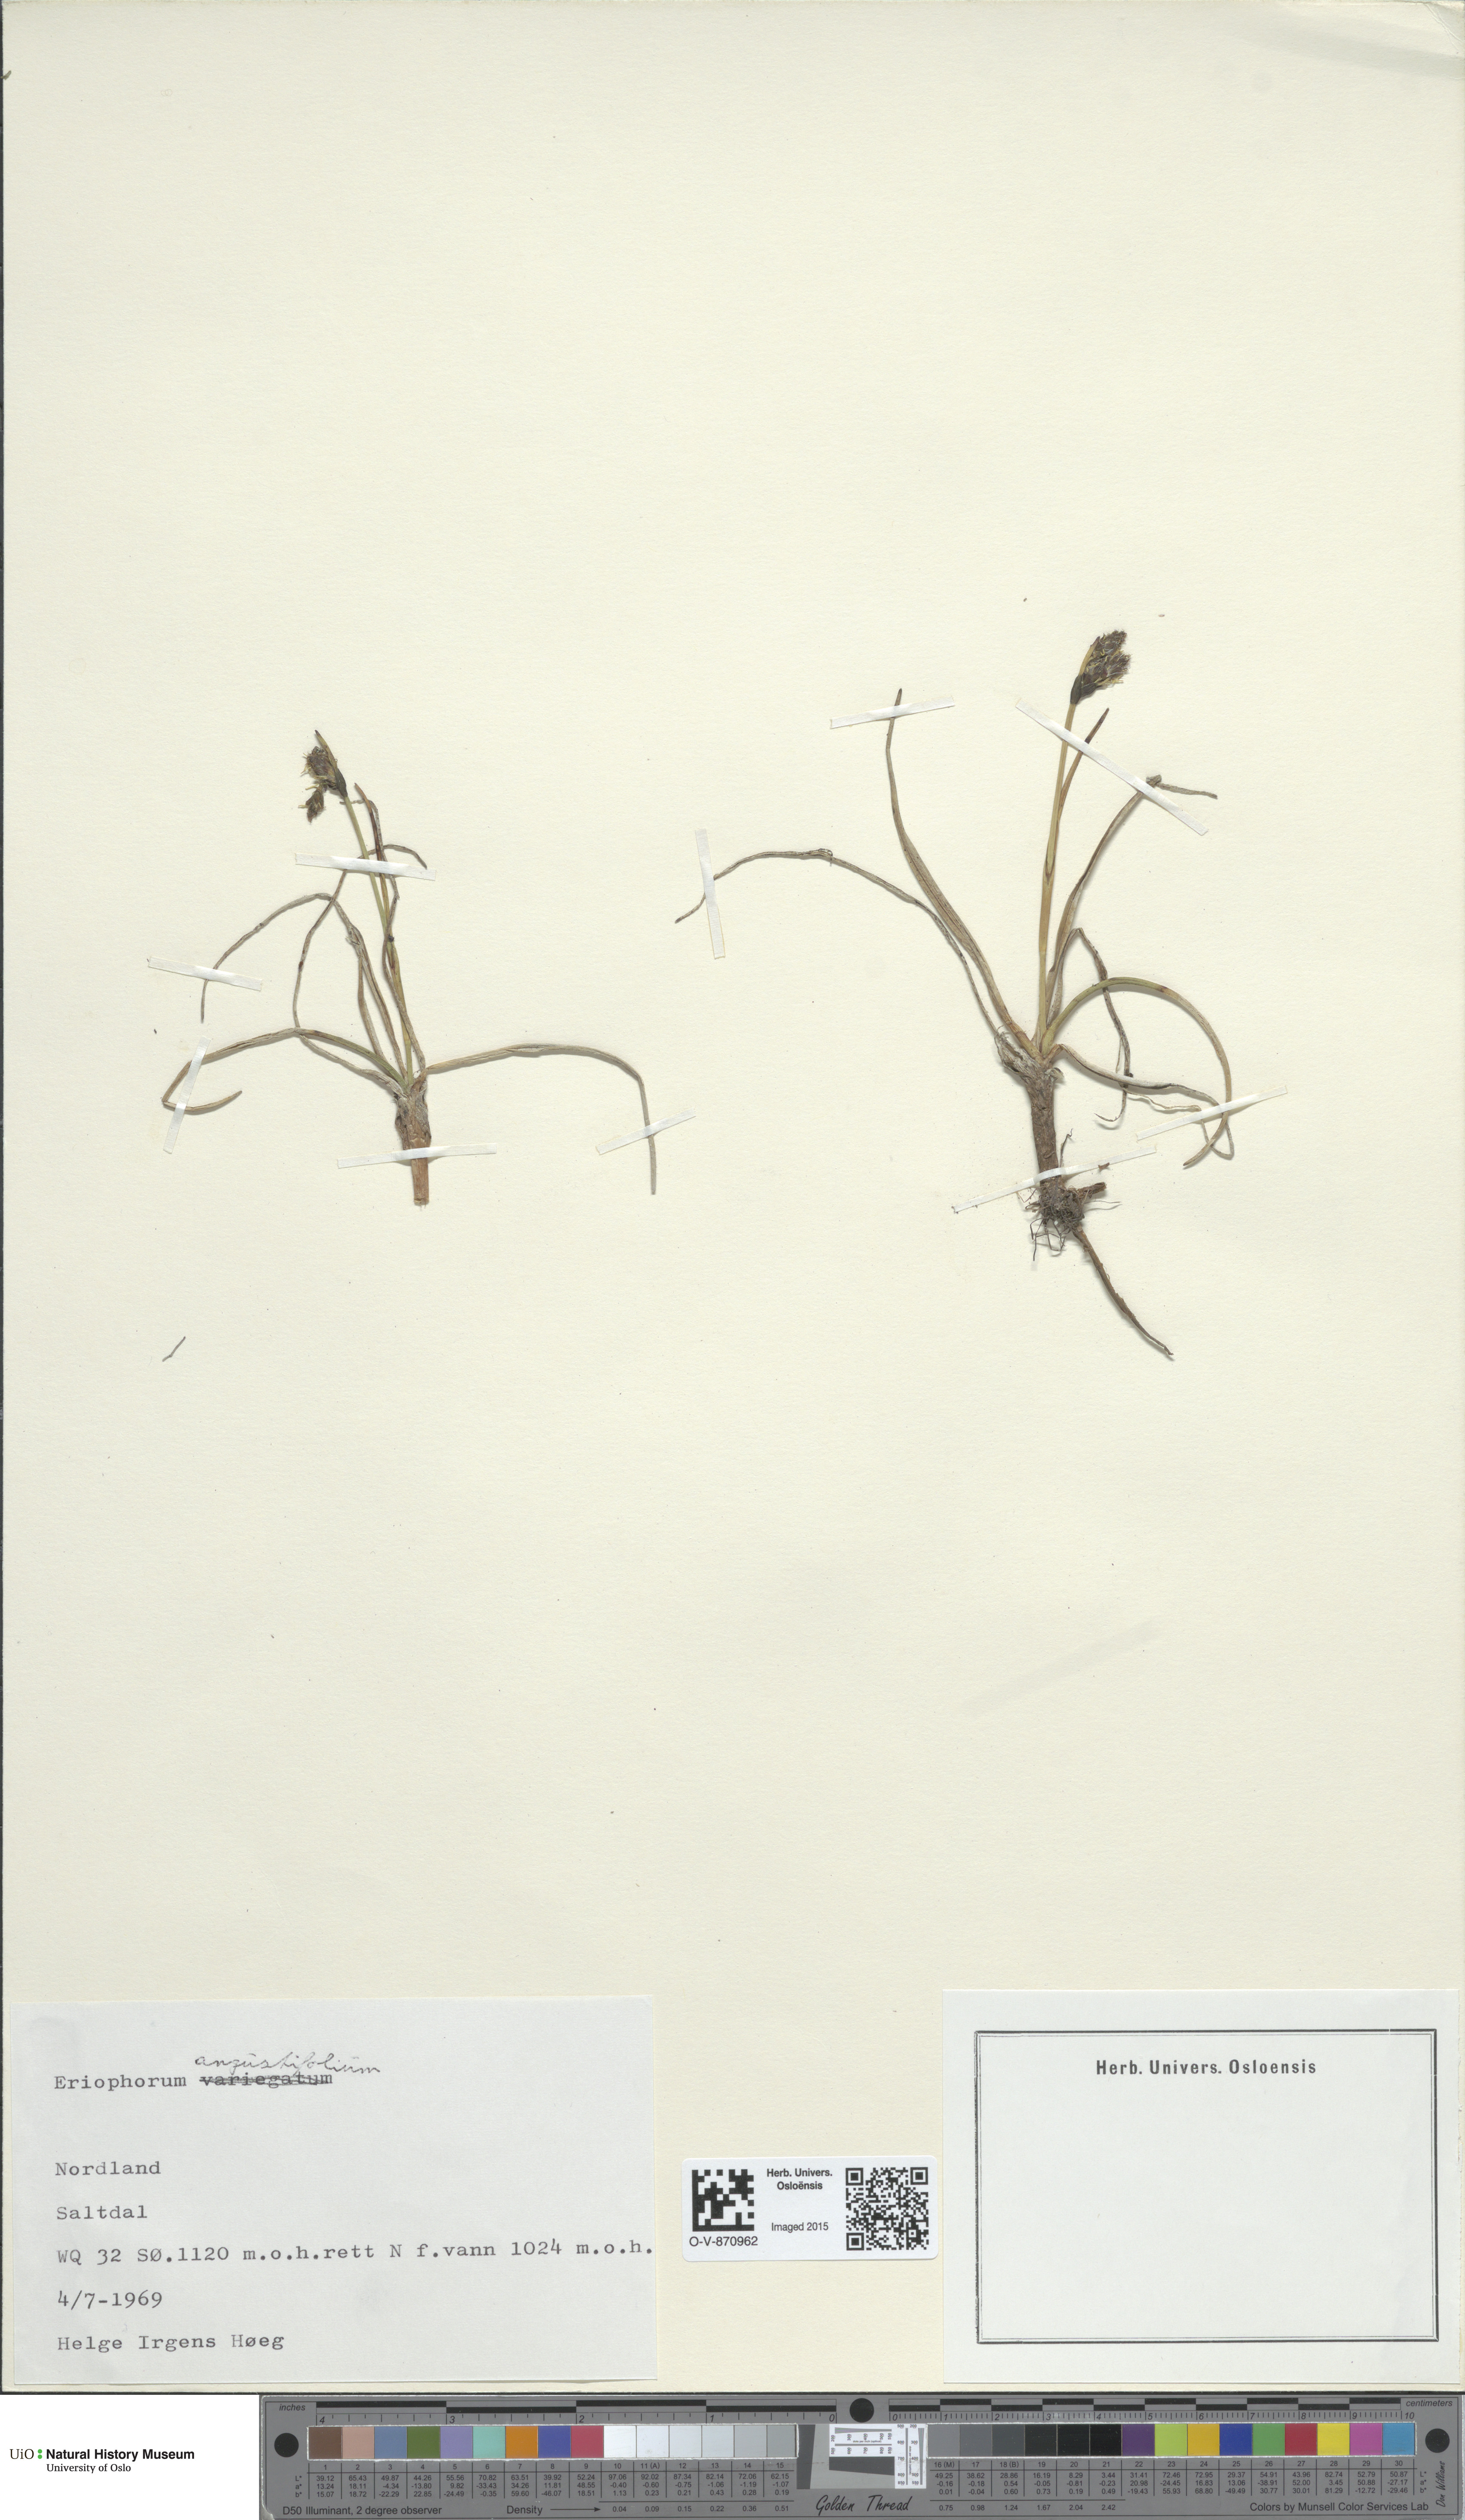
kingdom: Plantae
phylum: Tracheophyta
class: Liliopsida
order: Poales
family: Cyperaceae
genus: Eriophorum
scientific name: Eriophorum angustifolium
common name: Common cottongrass
